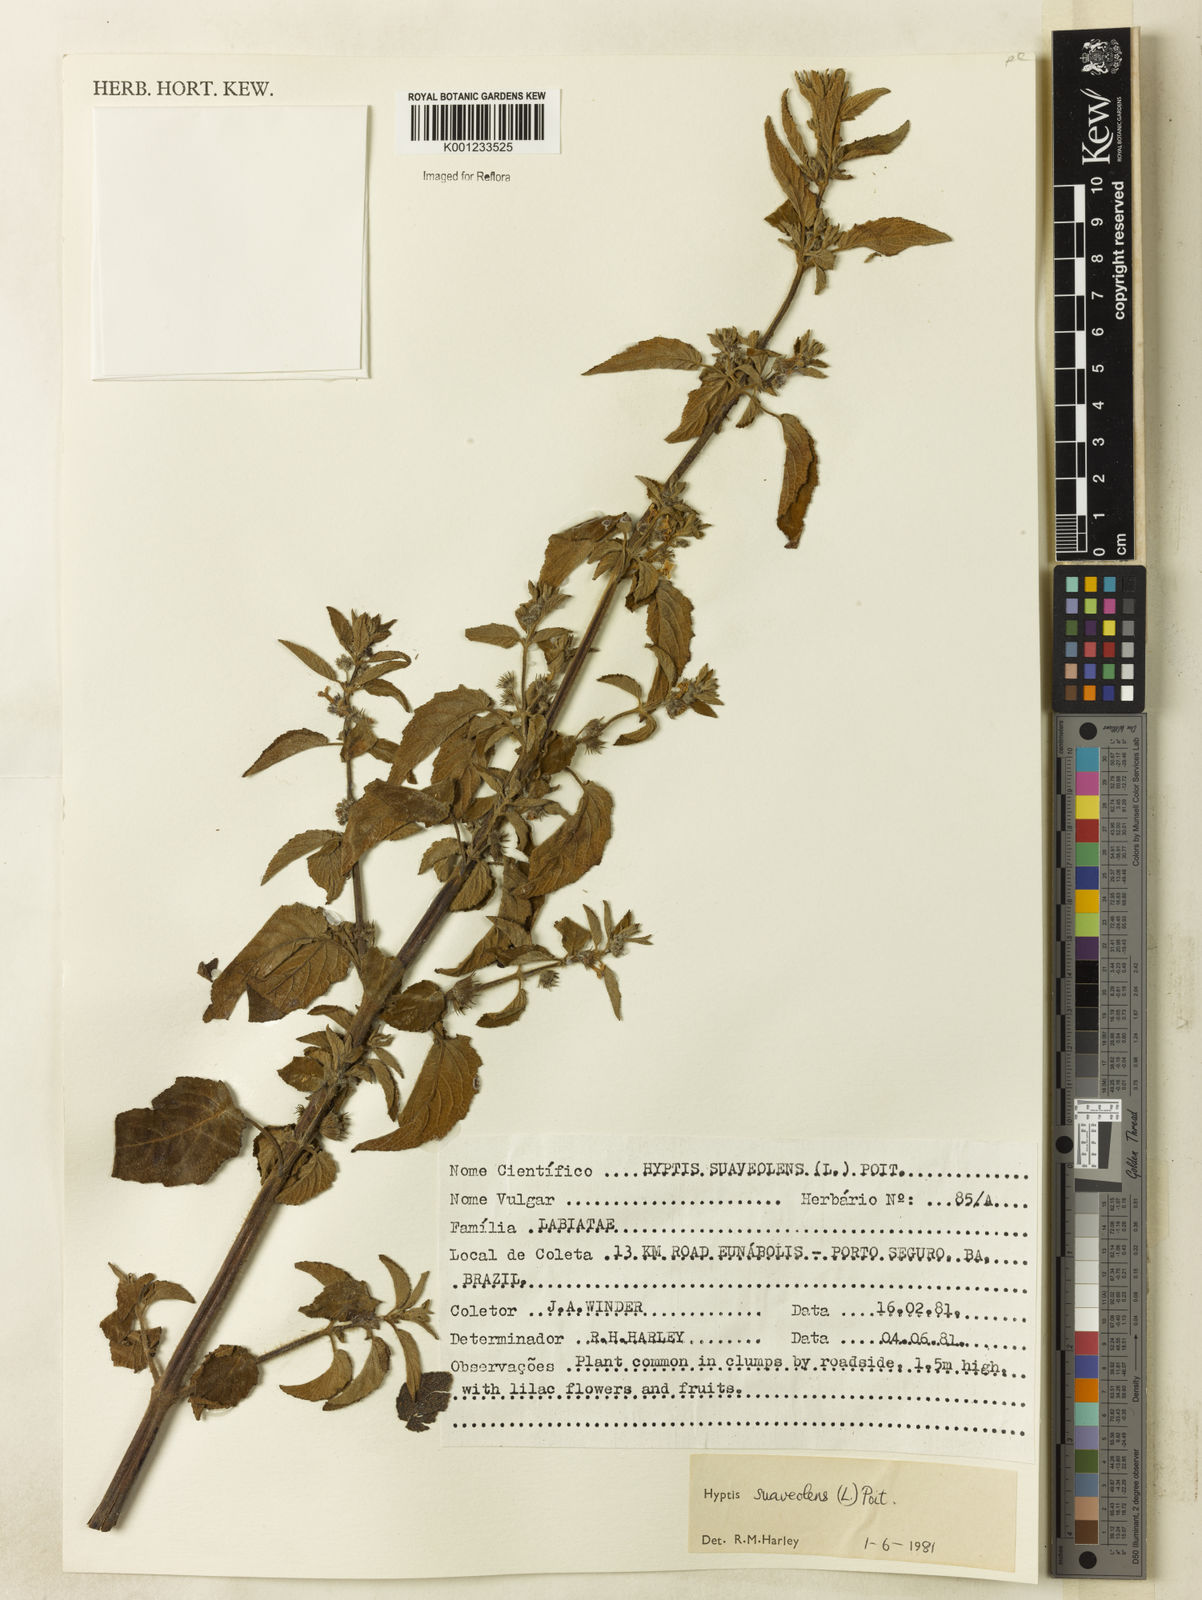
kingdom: Plantae
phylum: Tracheophyta
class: Magnoliopsida
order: Lamiales
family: Lamiaceae
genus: Mesosphaerum
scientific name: Mesosphaerum suaveolens
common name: Pignut
